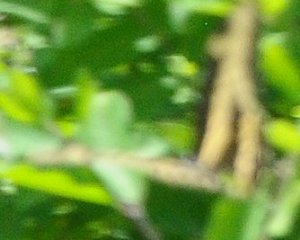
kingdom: Animalia
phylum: Arthropoda
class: Insecta
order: Lepidoptera
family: Papilionidae
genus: Papilio
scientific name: Papilio cresphontes
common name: Eastern Giant Swallowtail
